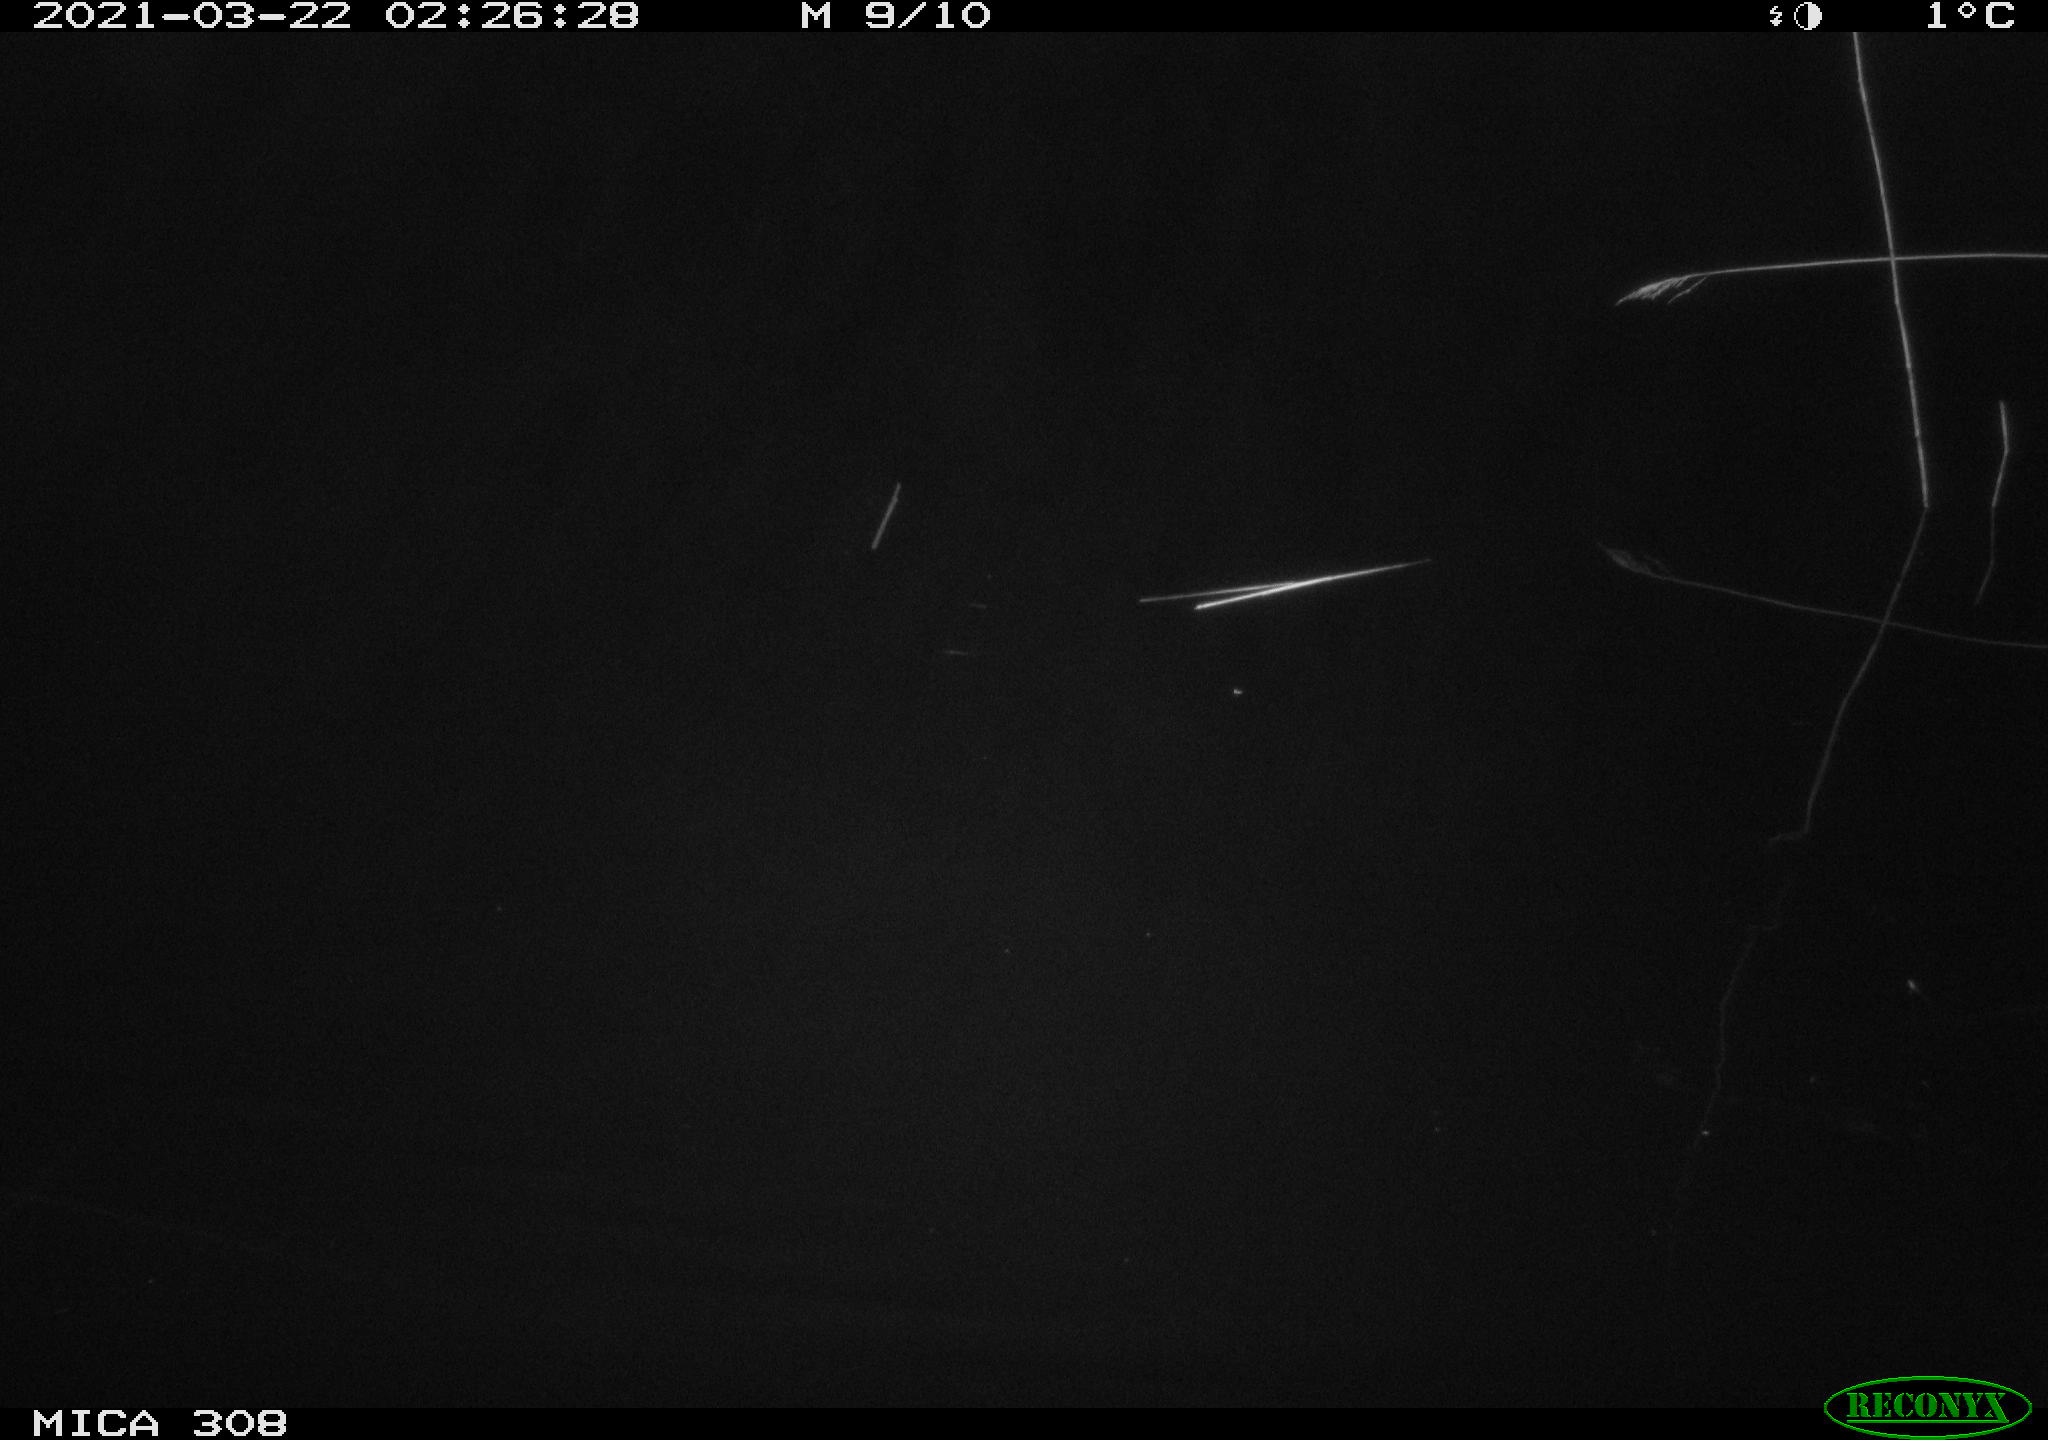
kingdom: Animalia
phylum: Chordata
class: Aves
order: Anseriformes
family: Anatidae
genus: Anas
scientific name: Anas platyrhynchos
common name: Mallard
